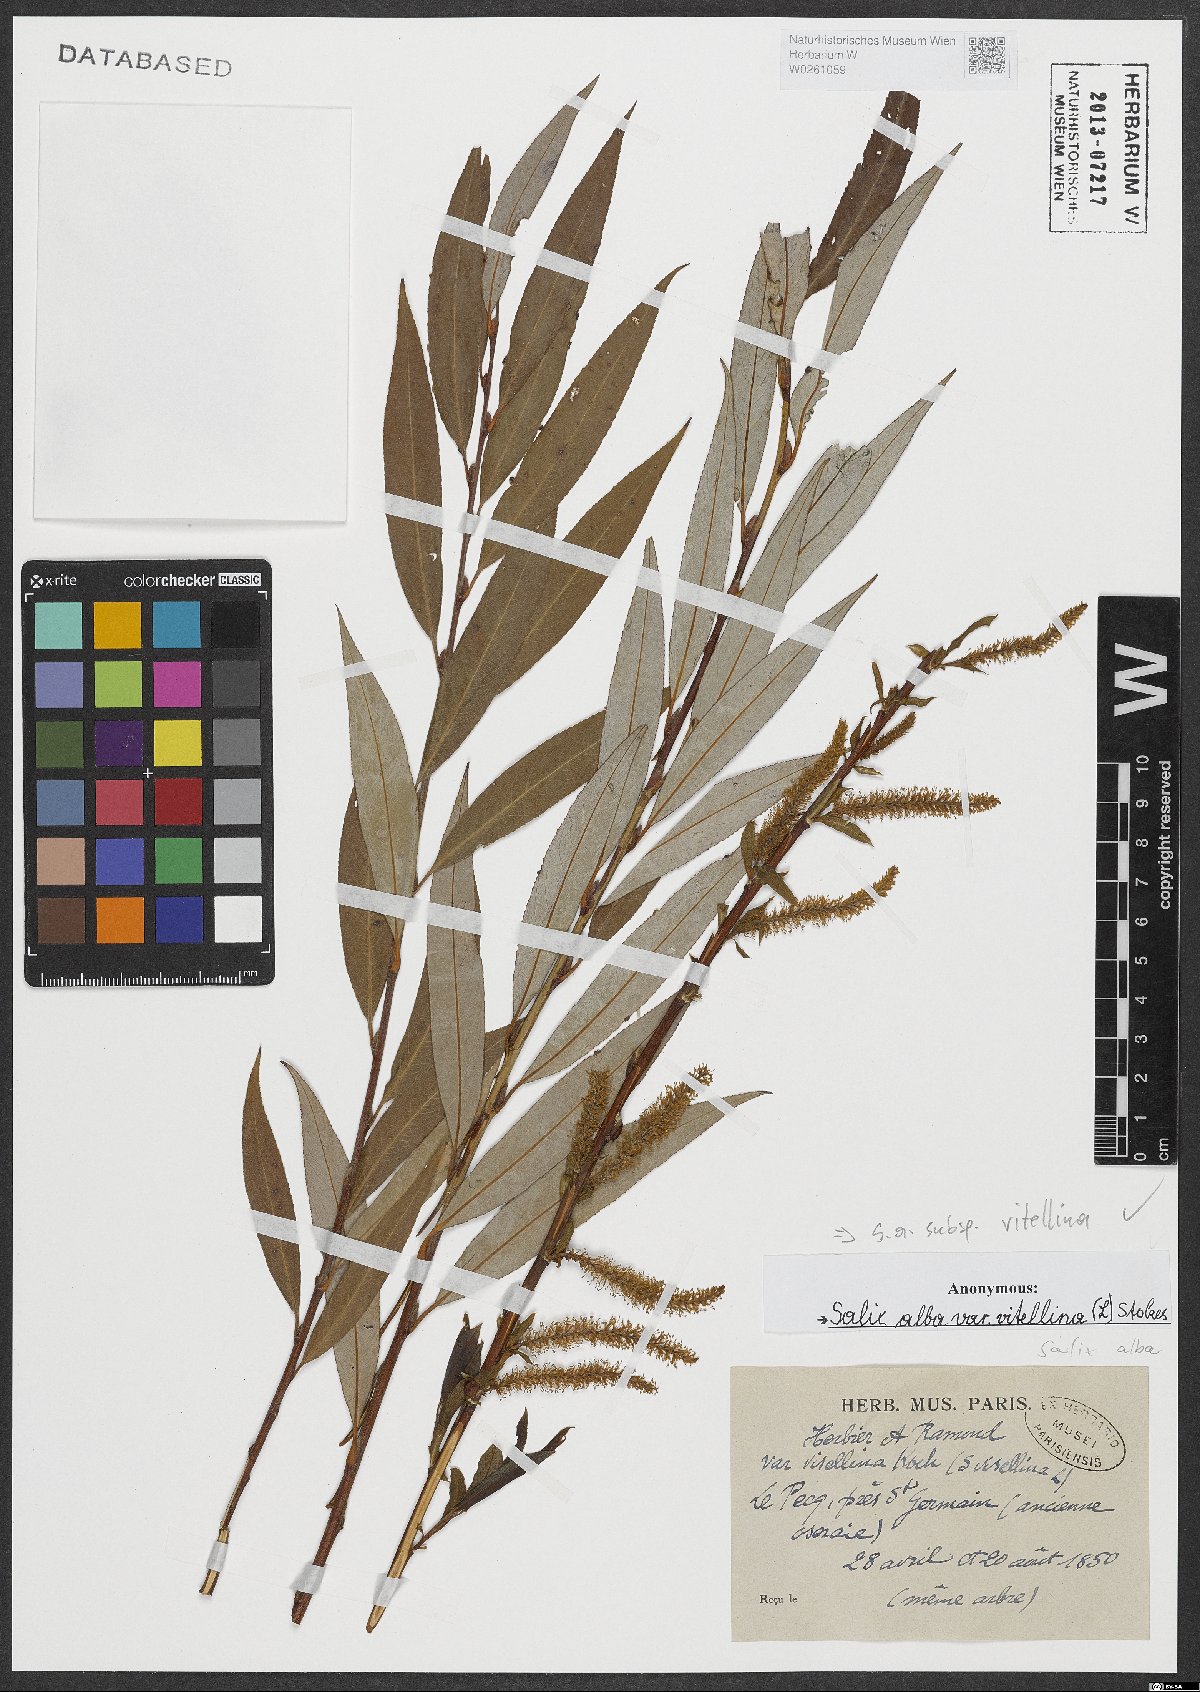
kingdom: Plantae
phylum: Tracheophyta
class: Magnoliopsida
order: Malpighiales
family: Salicaceae
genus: Salix
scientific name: Salix alba
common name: White willow
